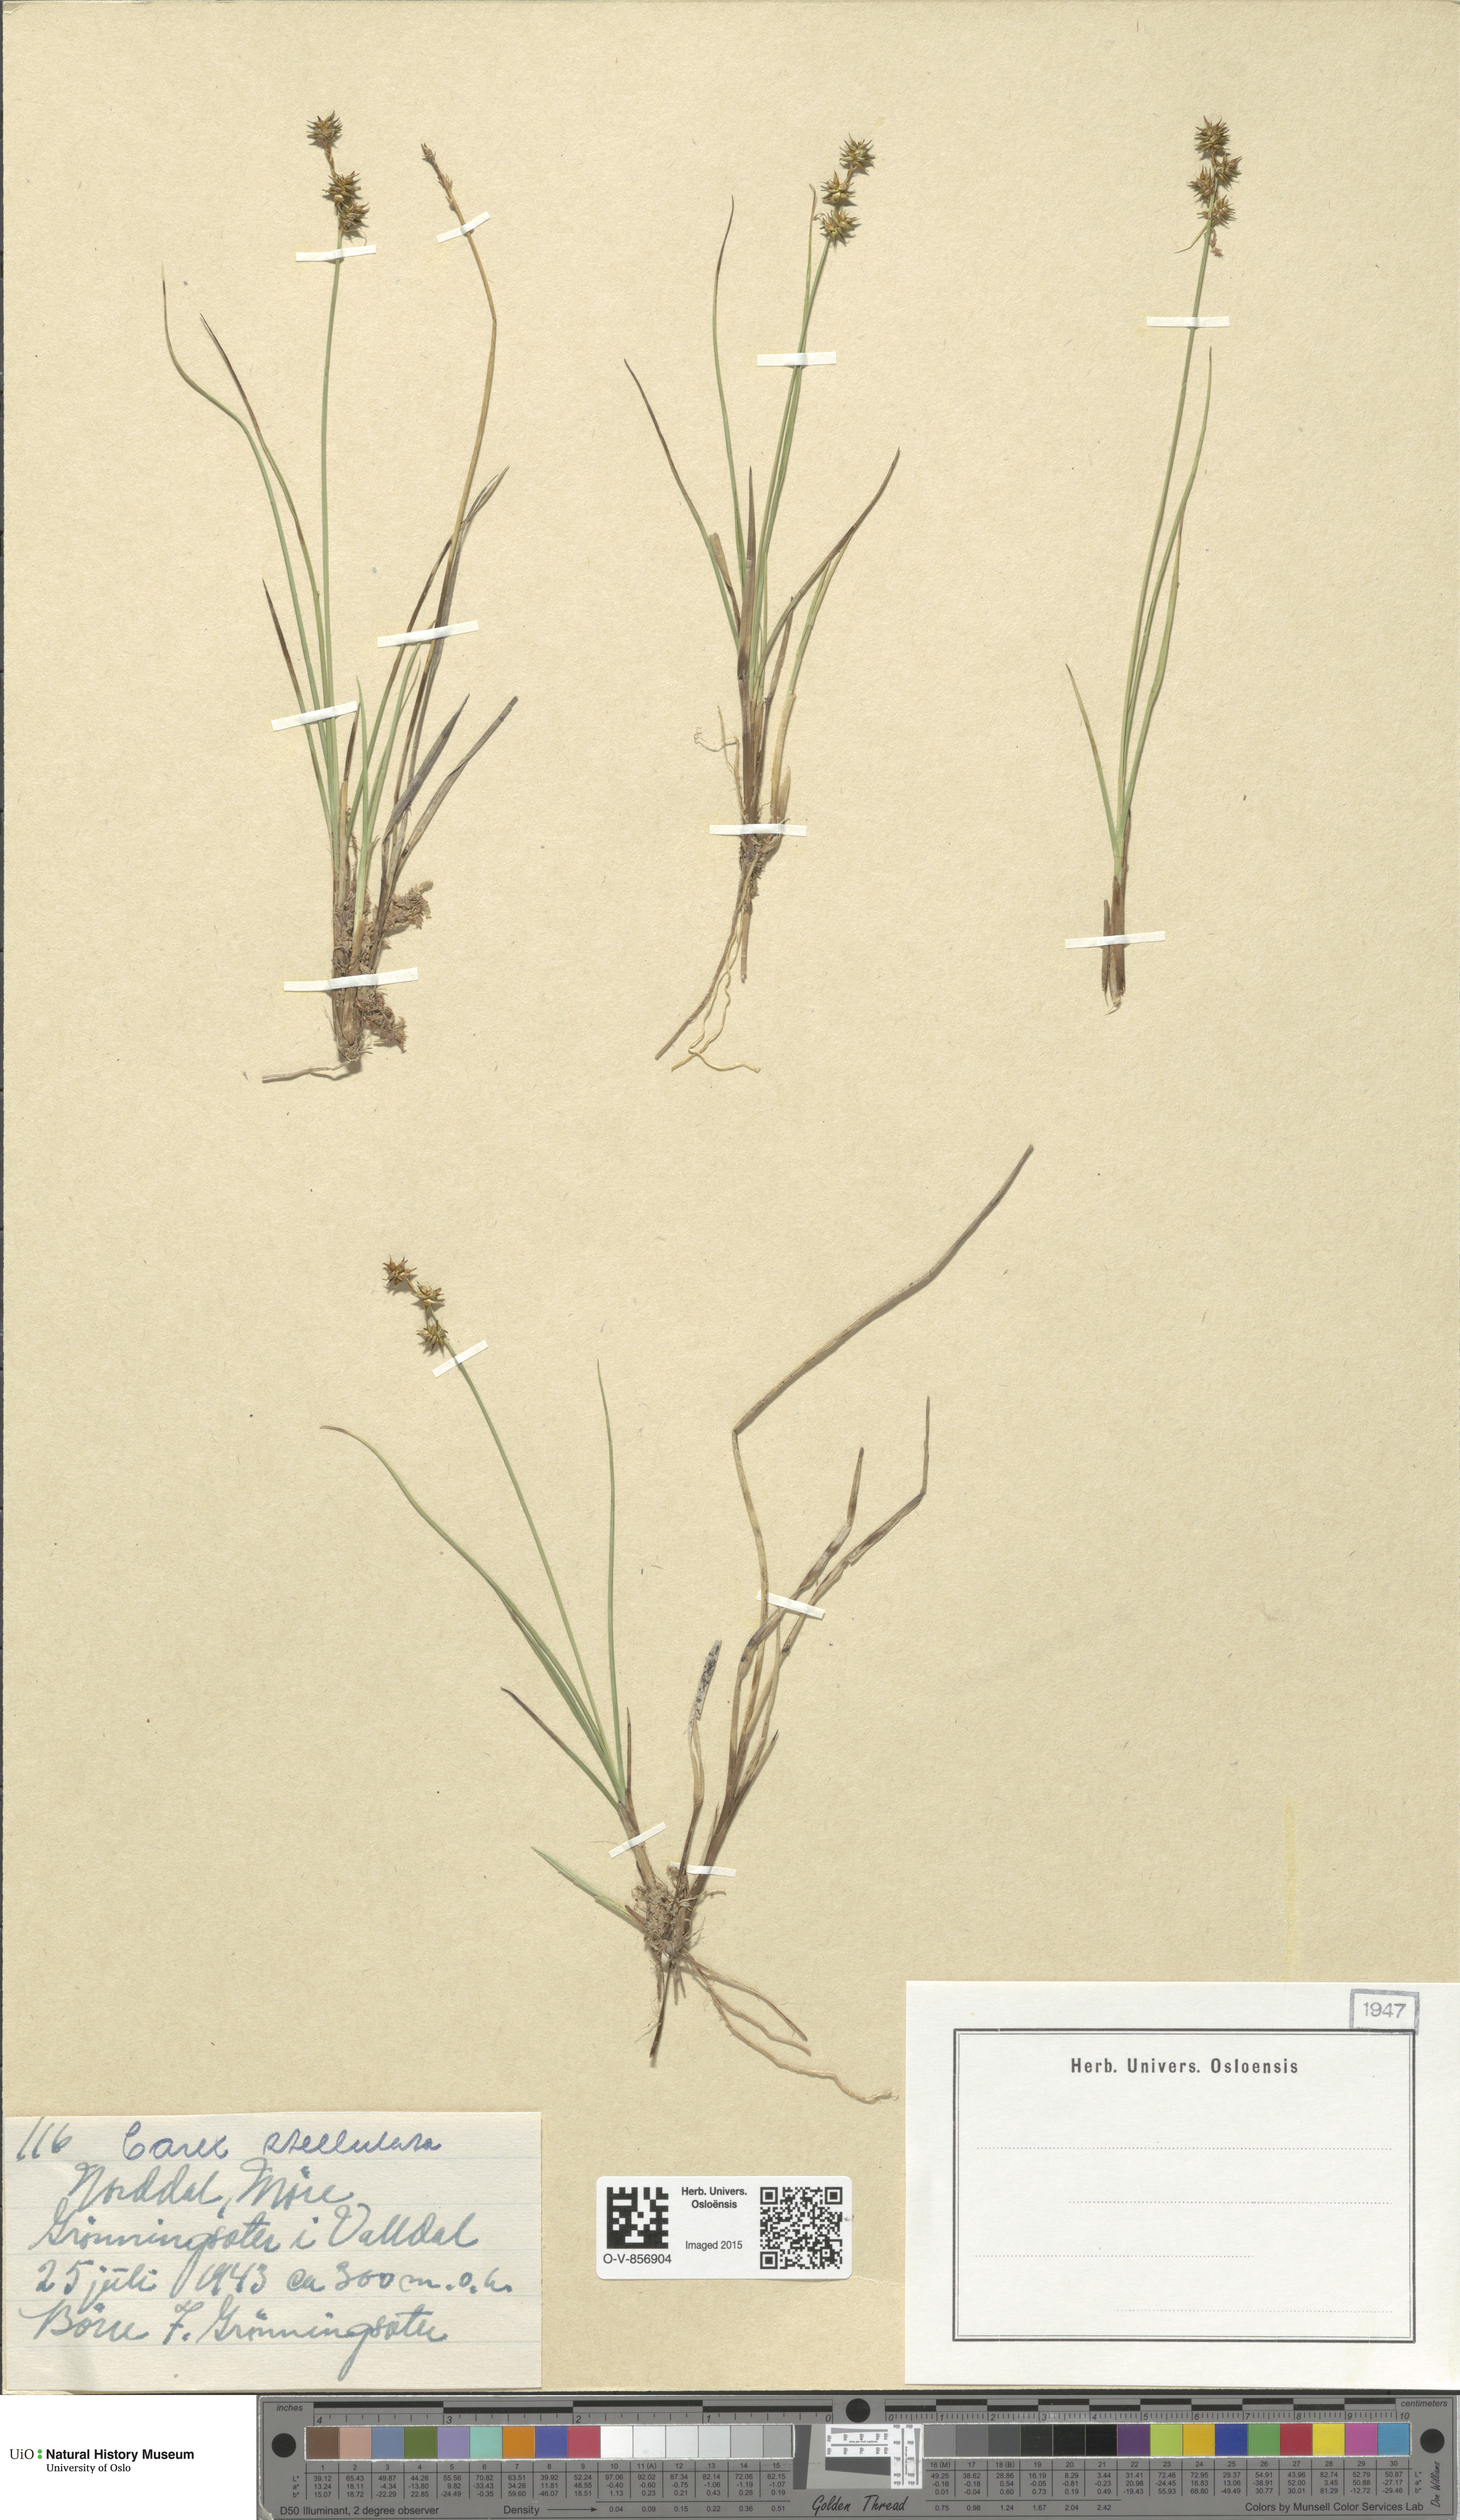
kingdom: Plantae
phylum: Tracheophyta
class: Liliopsida
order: Poales
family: Cyperaceae
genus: Carex
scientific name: Carex echinata
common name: Star sedge
